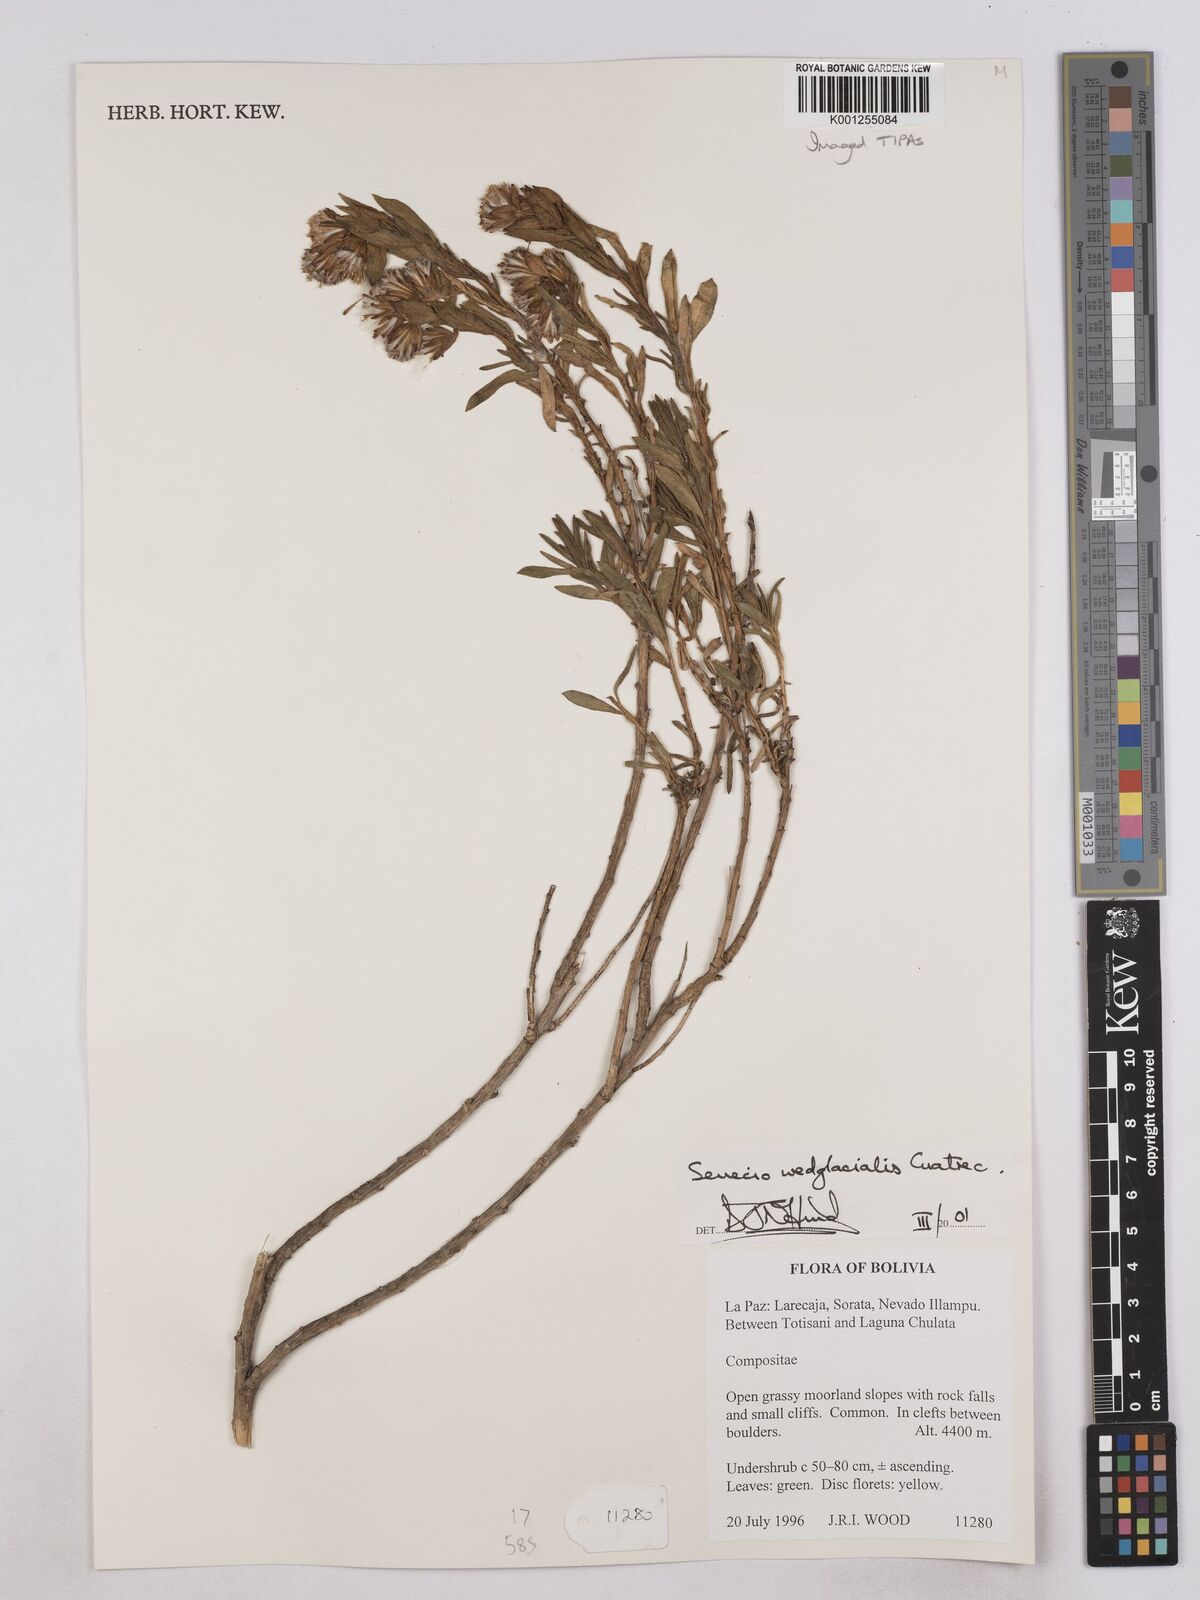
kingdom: Plantae
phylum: Tracheophyta
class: Magnoliopsida
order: Asterales
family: Asteraceae
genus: Senecio
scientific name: Senecio wedglacialis
